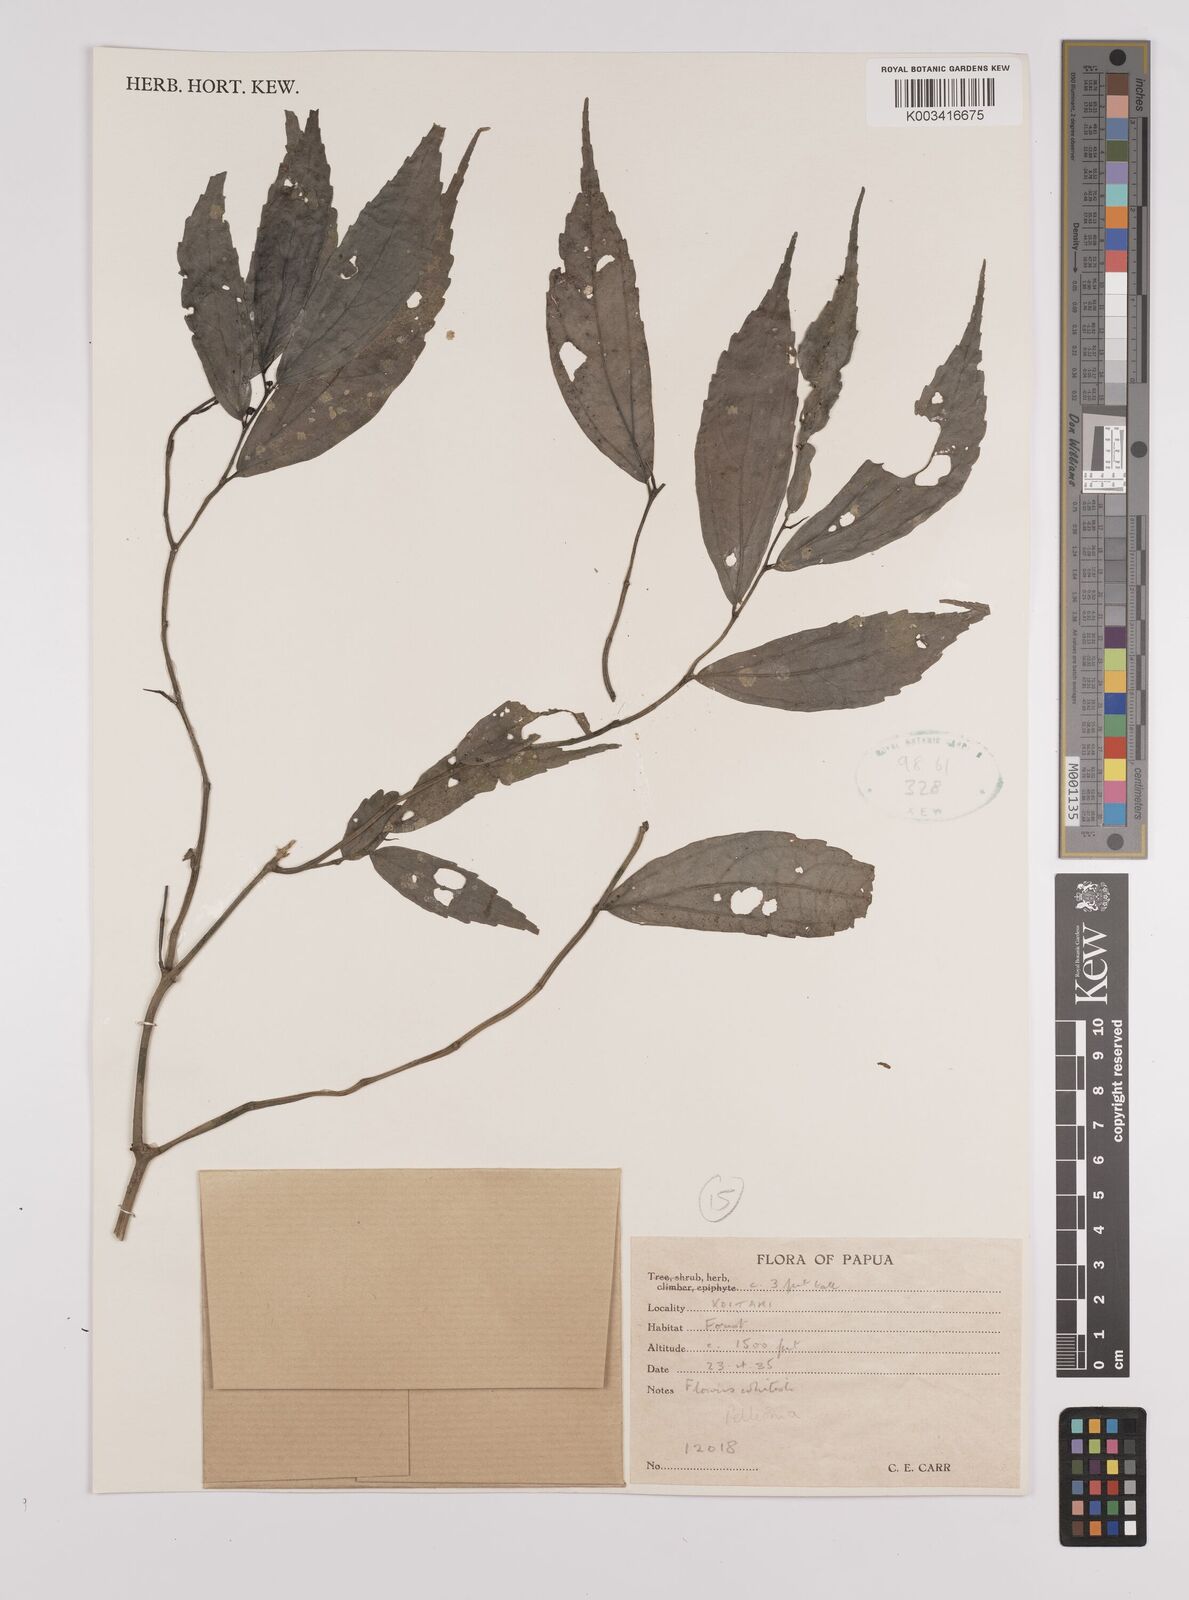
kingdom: Plantae
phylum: Tracheophyta
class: Magnoliopsida
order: Rosales
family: Urticaceae
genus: Elatostema
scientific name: Elatostema
